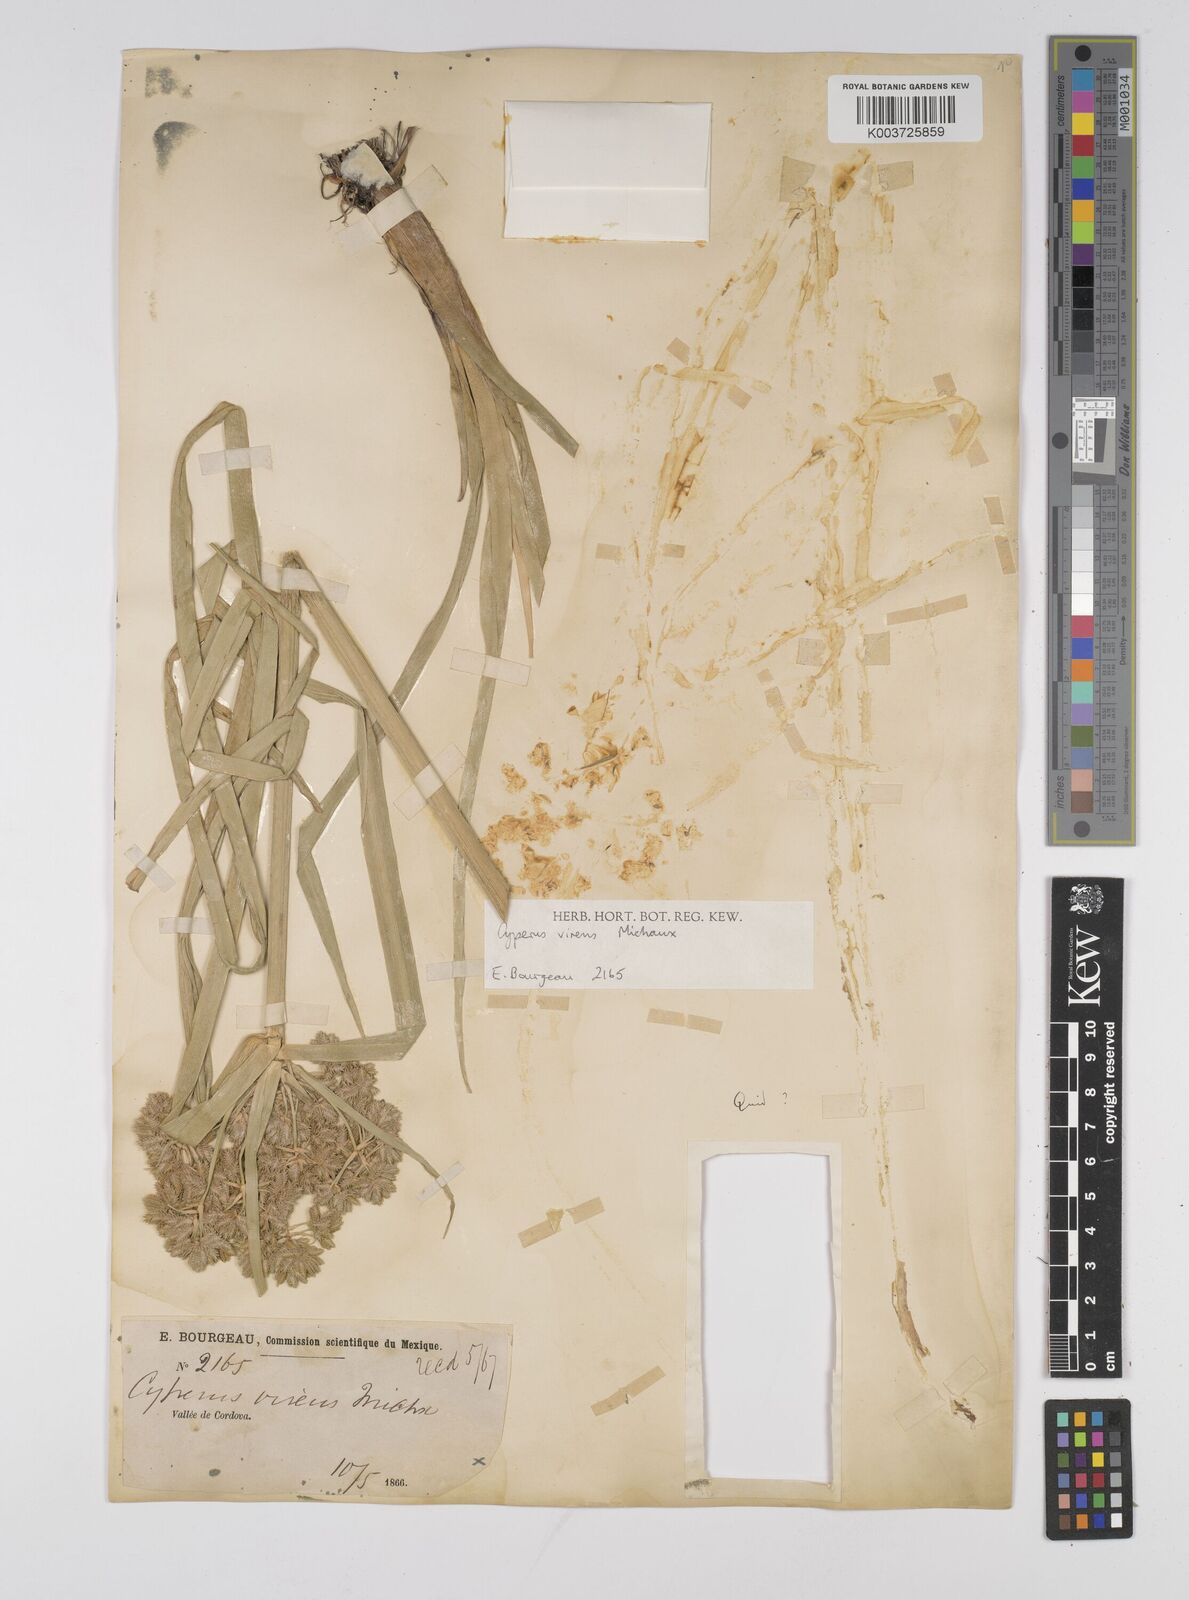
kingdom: Plantae
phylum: Tracheophyta
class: Liliopsida
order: Poales
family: Cyperaceae
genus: Cyperus
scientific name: Cyperus virens
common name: Green flatsedge
